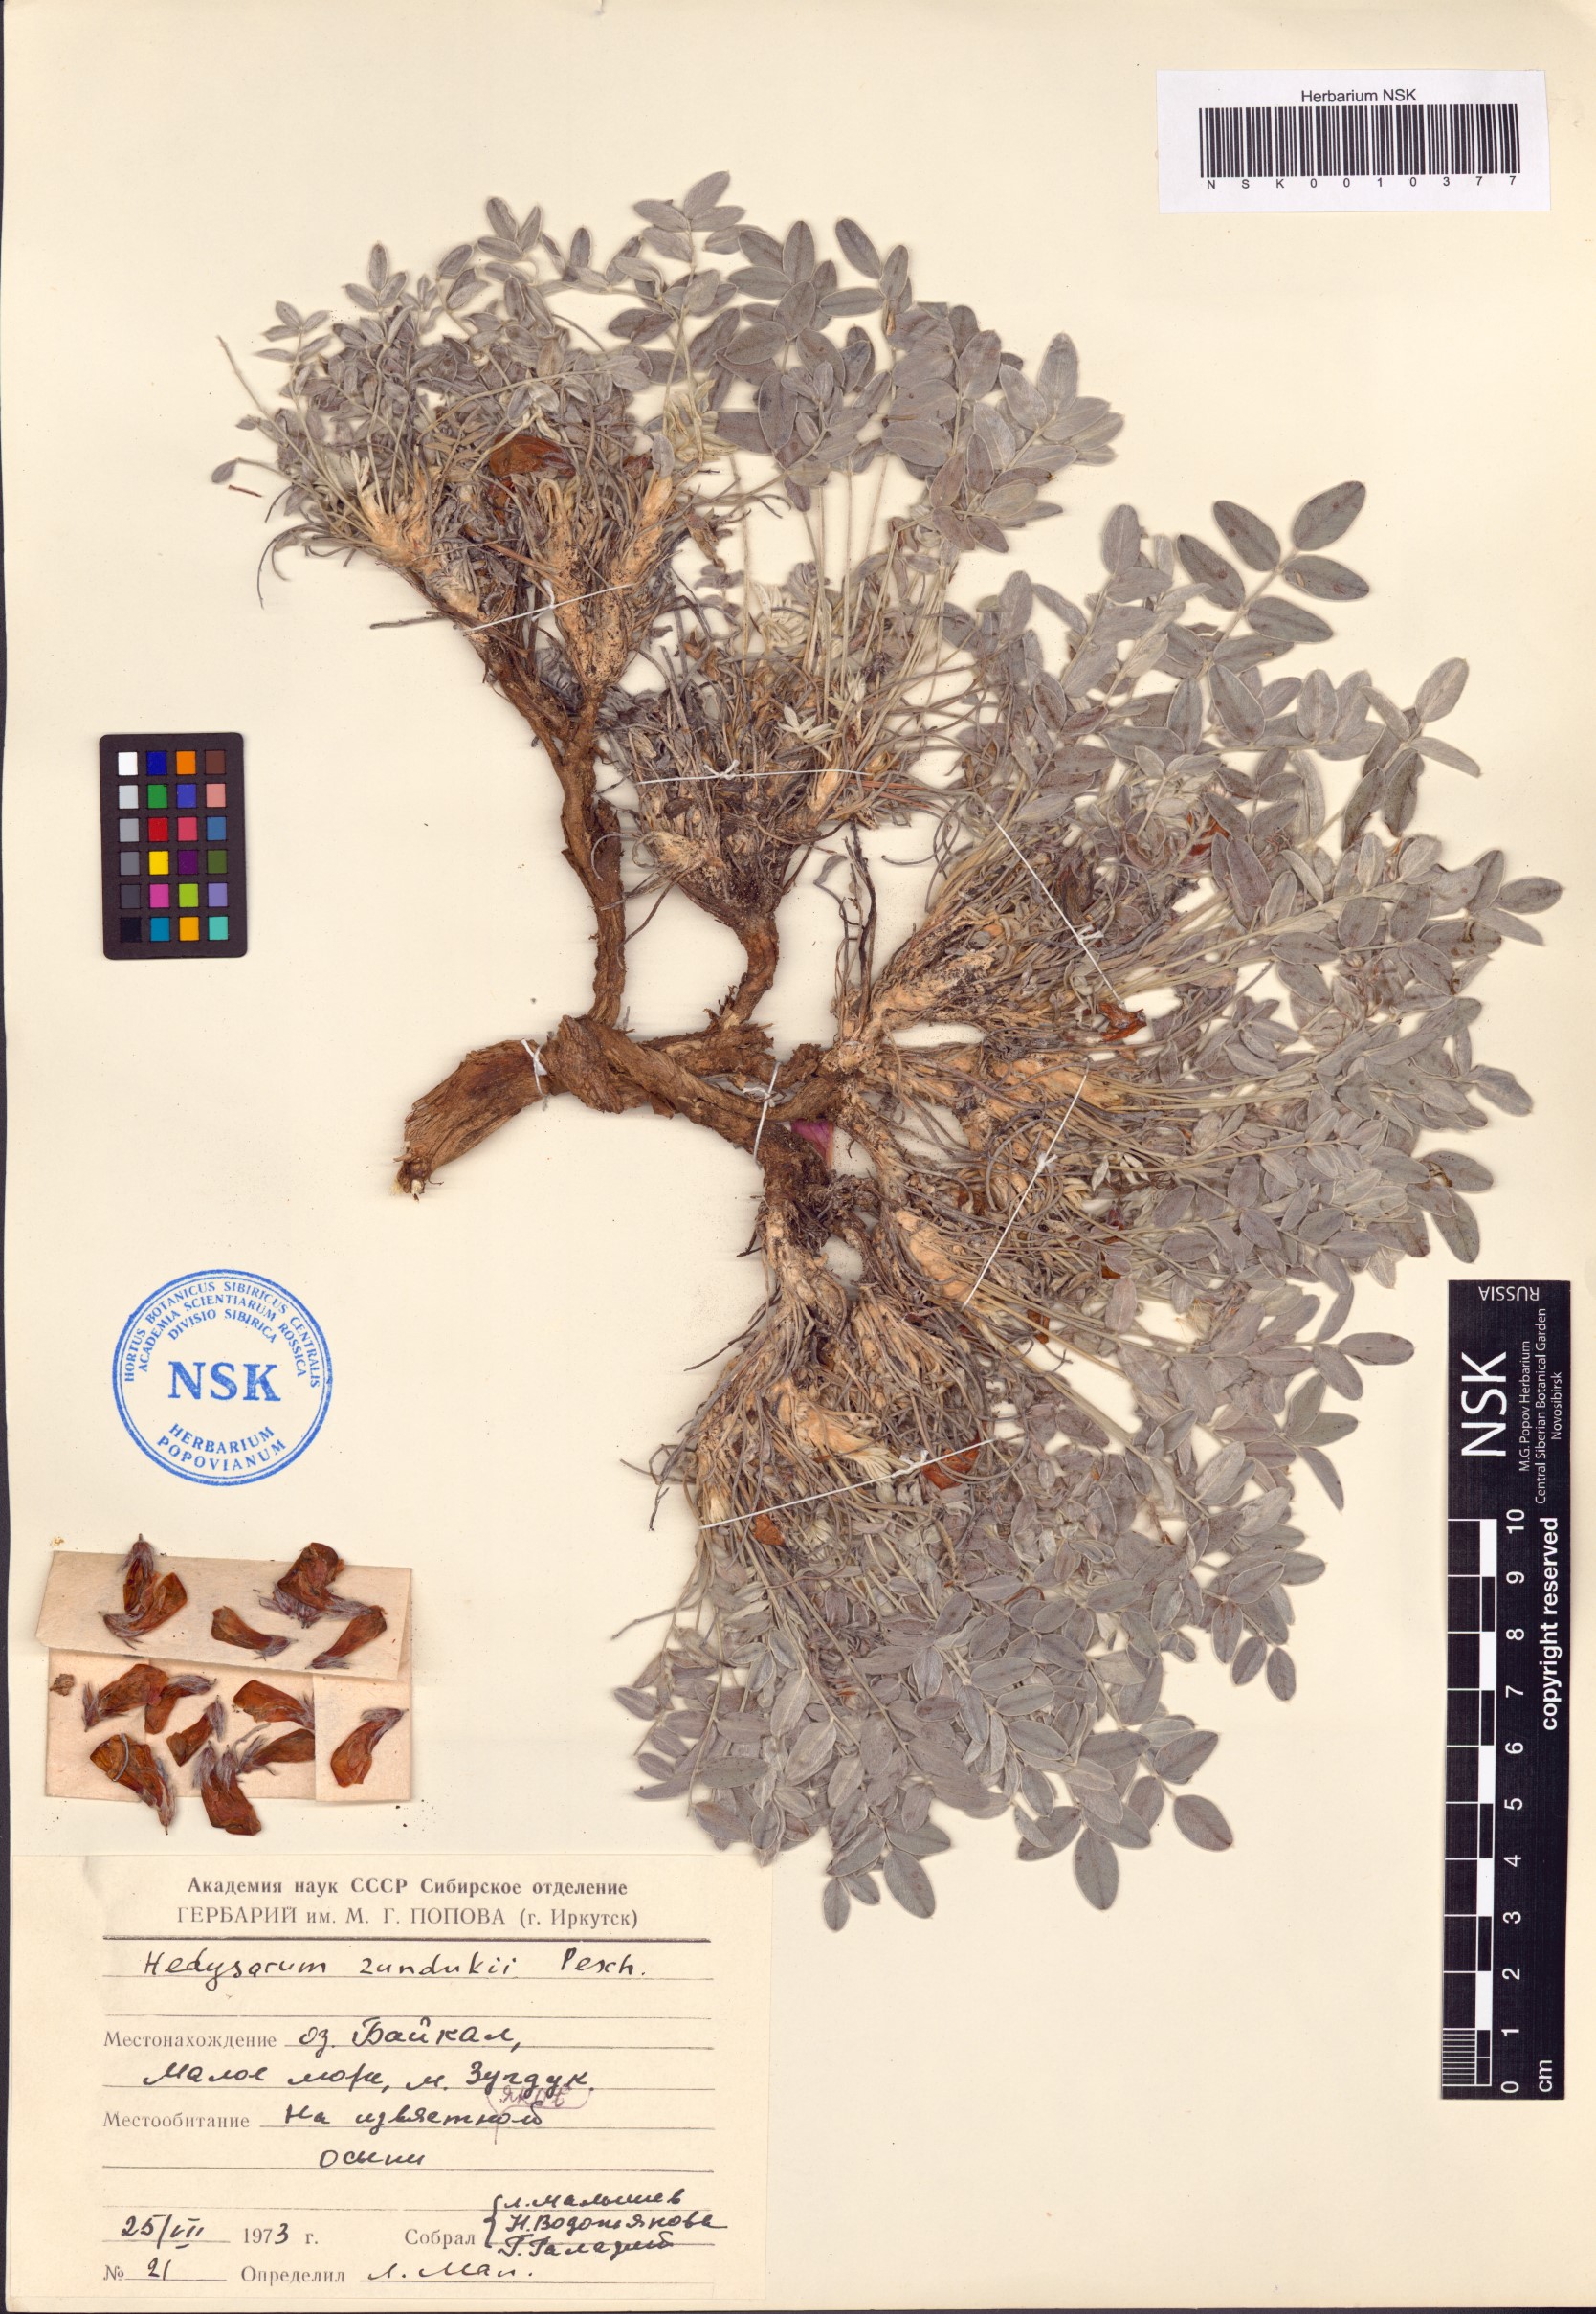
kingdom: Plantae
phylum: Tracheophyta
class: Magnoliopsida
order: Fabales
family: Fabaceae
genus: Hedysarum
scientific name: Hedysarum zundukii
